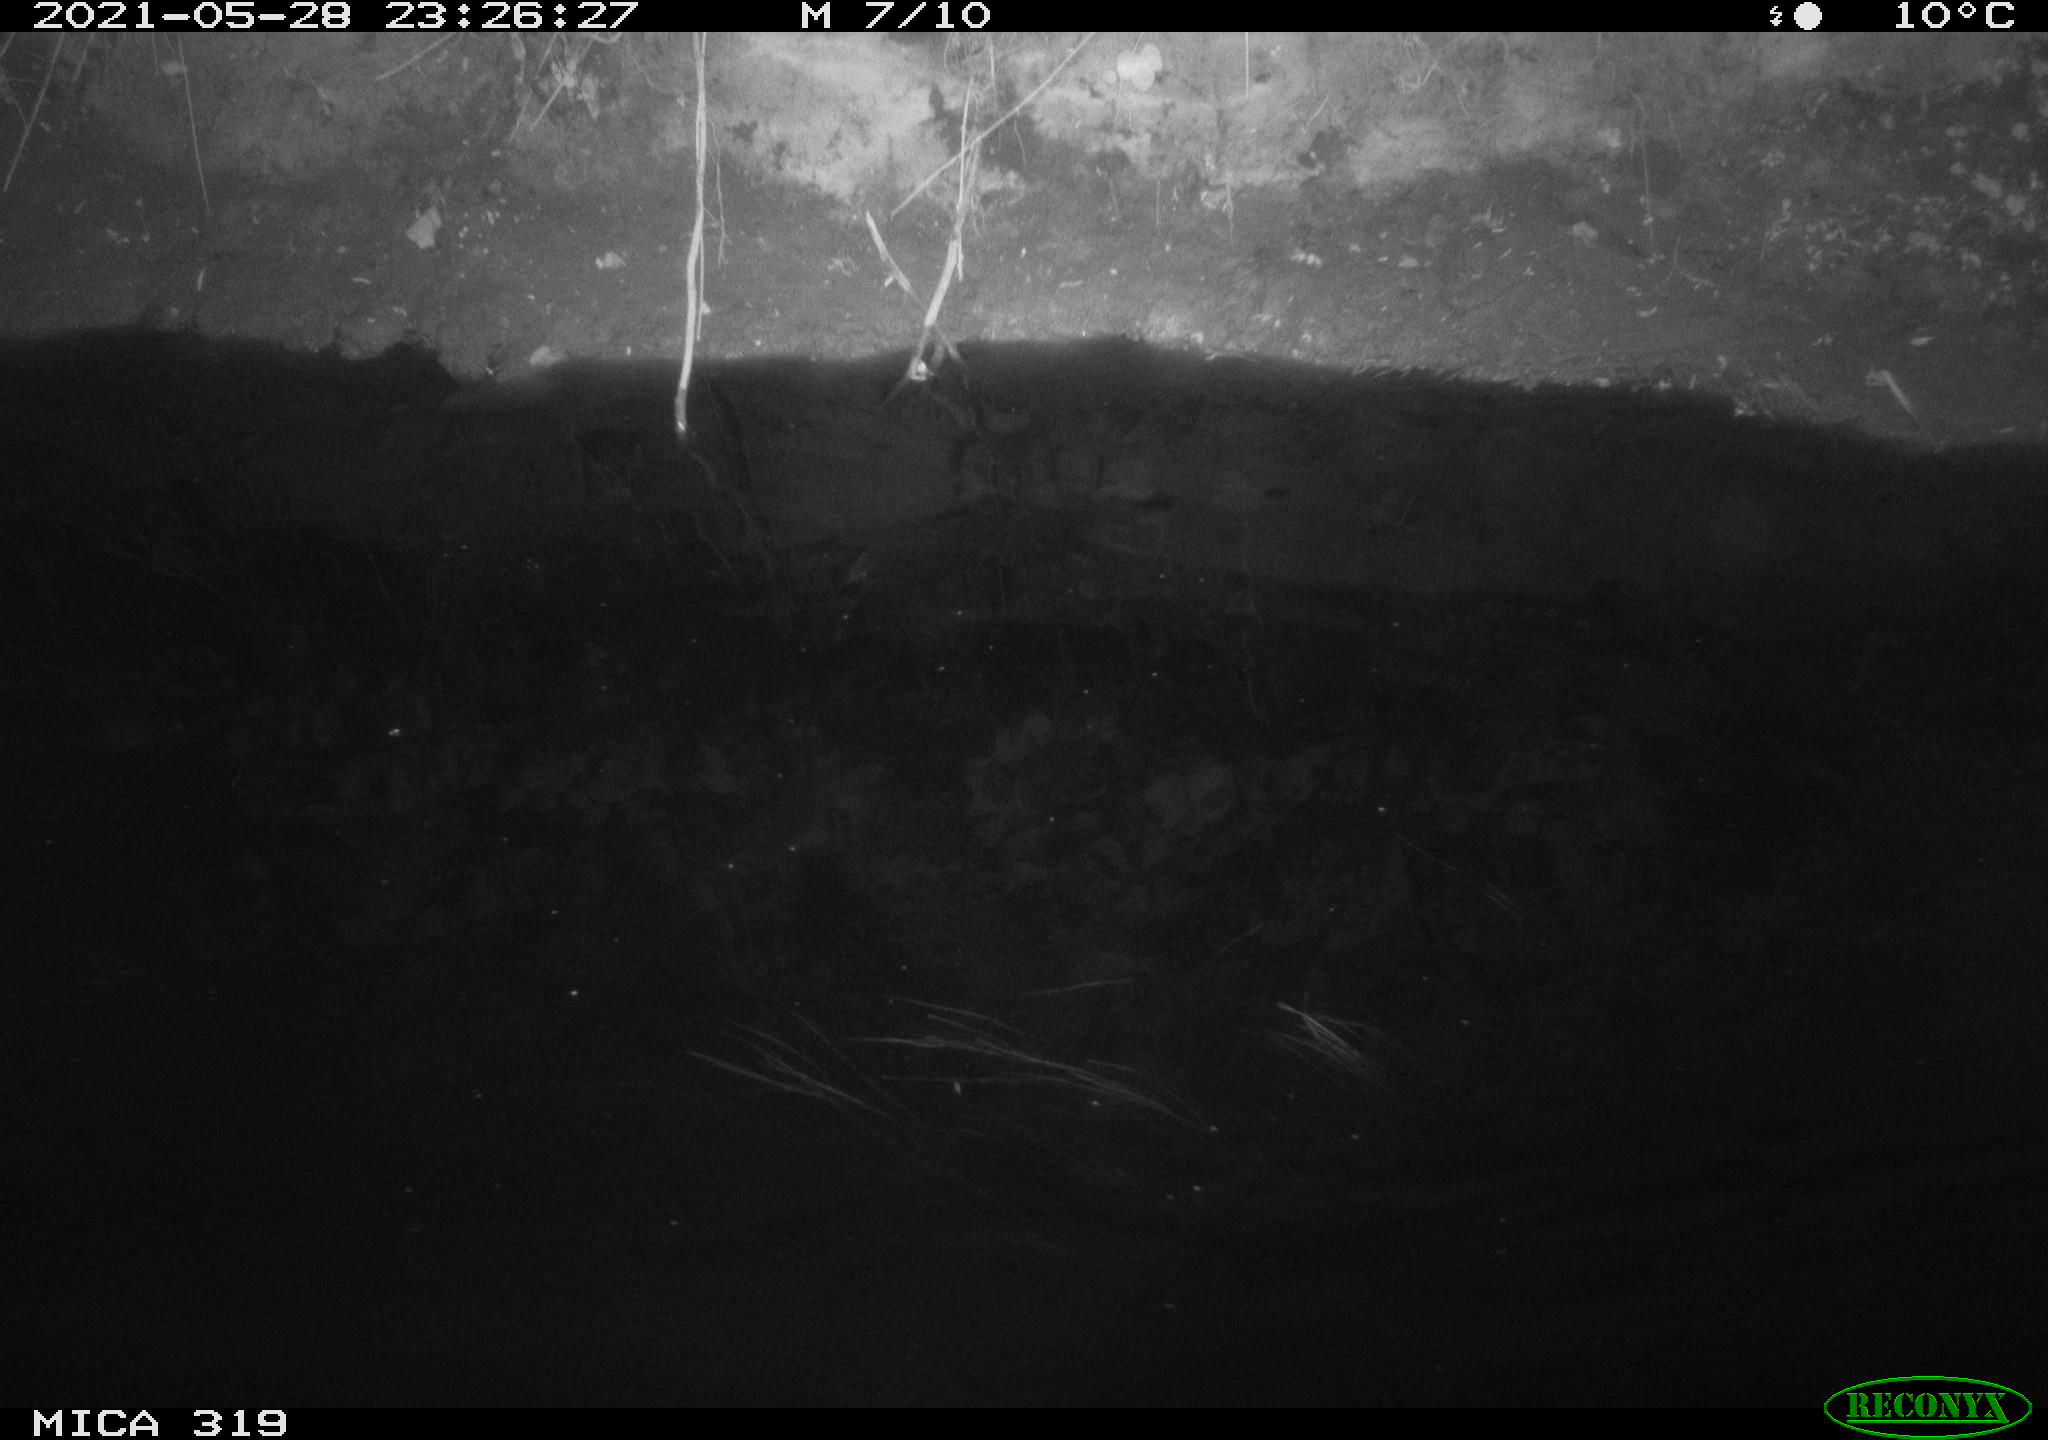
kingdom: Animalia
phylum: Chordata
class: Aves
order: Anseriformes
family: Anatidae
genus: Anas
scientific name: Anas platyrhynchos
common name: Mallard
